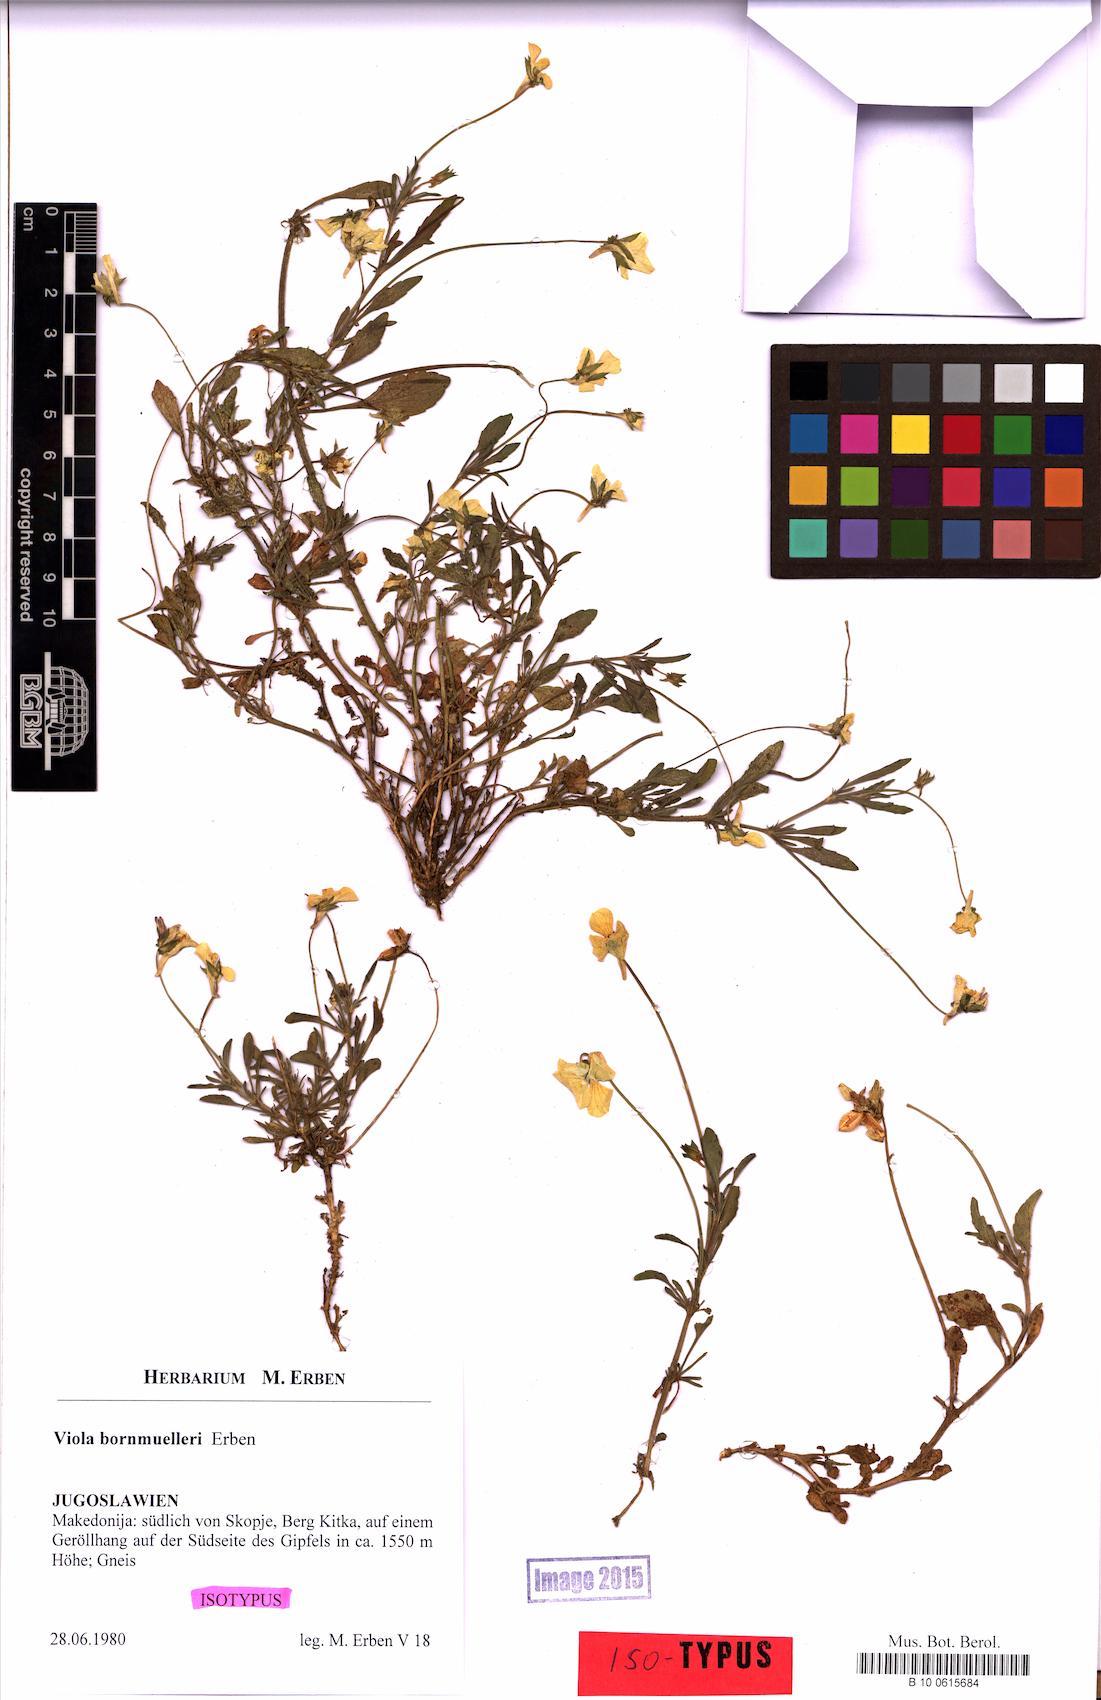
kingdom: Plantae
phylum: Tracheophyta
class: Magnoliopsida
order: Malpighiales
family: Violaceae
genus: Viola
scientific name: Viola bornmuelleri
